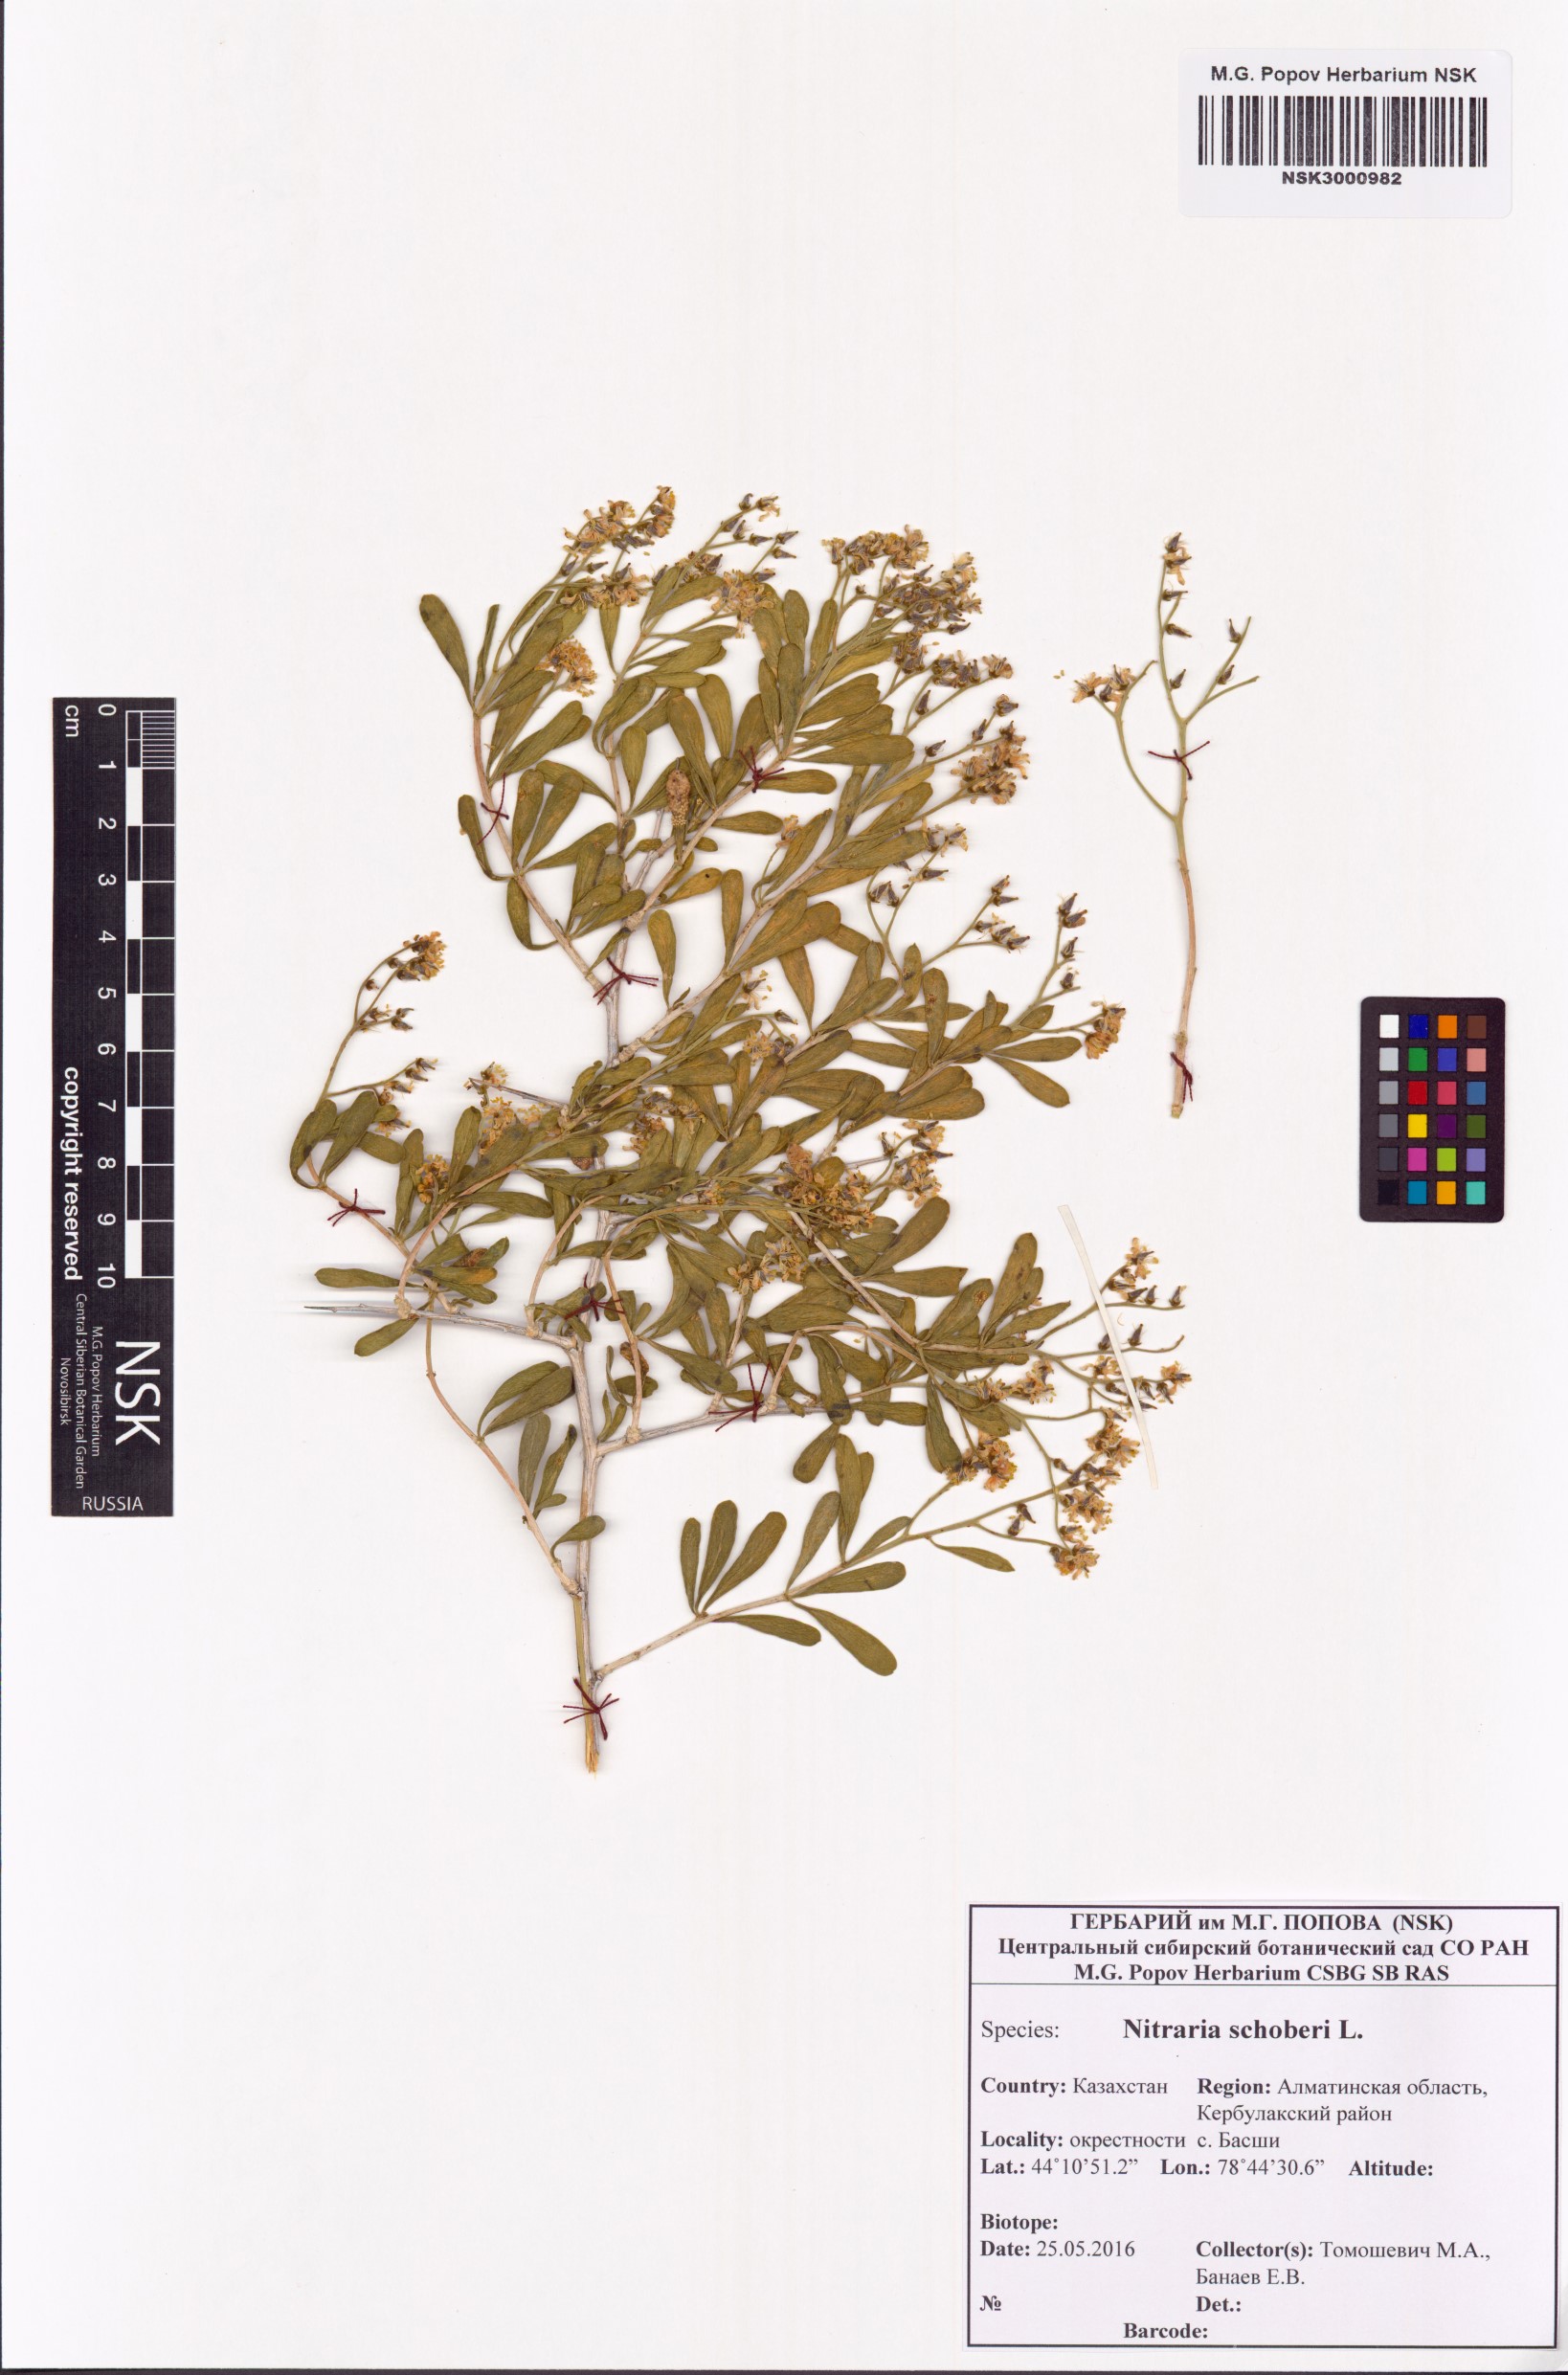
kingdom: Plantae
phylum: Tracheophyta
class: Magnoliopsida
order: Sapindales
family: Nitrariaceae
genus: Nitraria
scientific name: Nitraria schoberi
